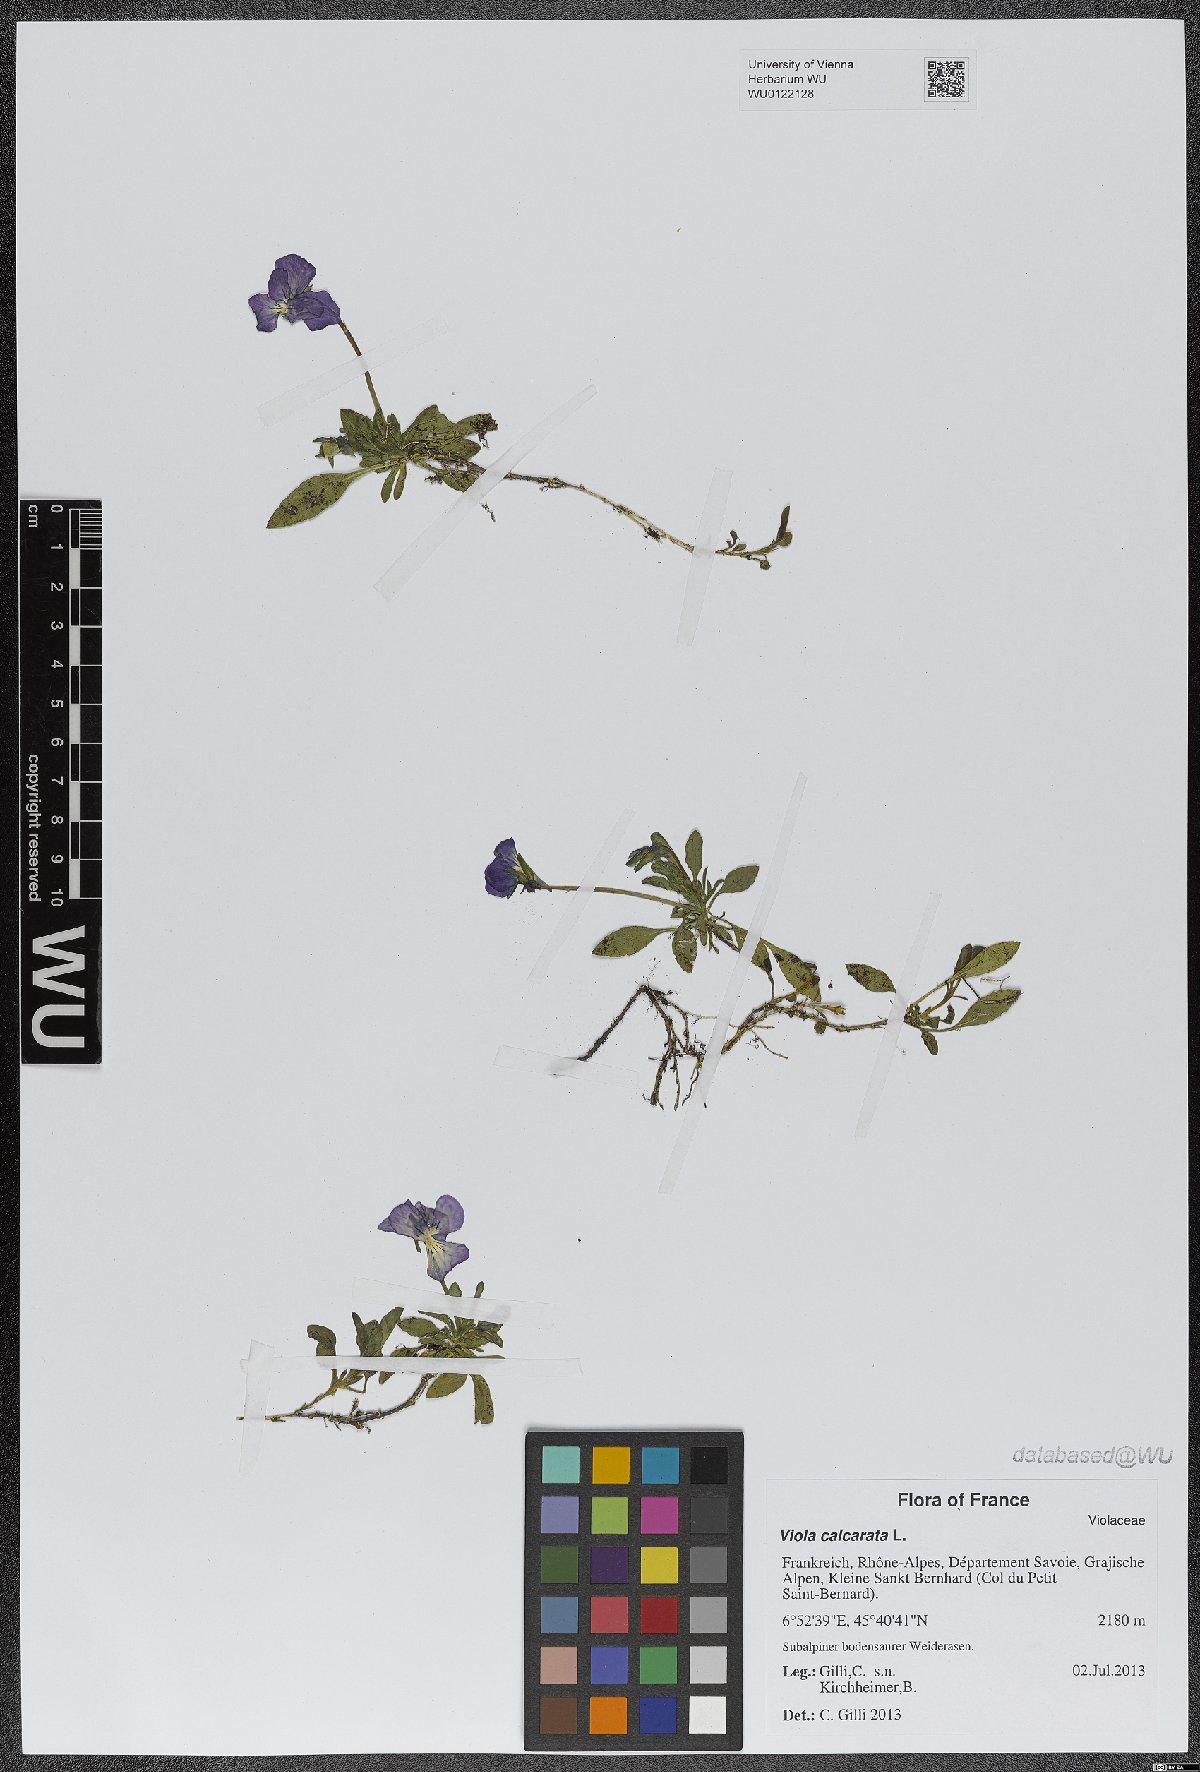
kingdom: Plantae
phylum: Tracheophyta
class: Magnoliopsida
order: Malpighiales
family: Violaceae
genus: Viola
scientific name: Viola calcarata
